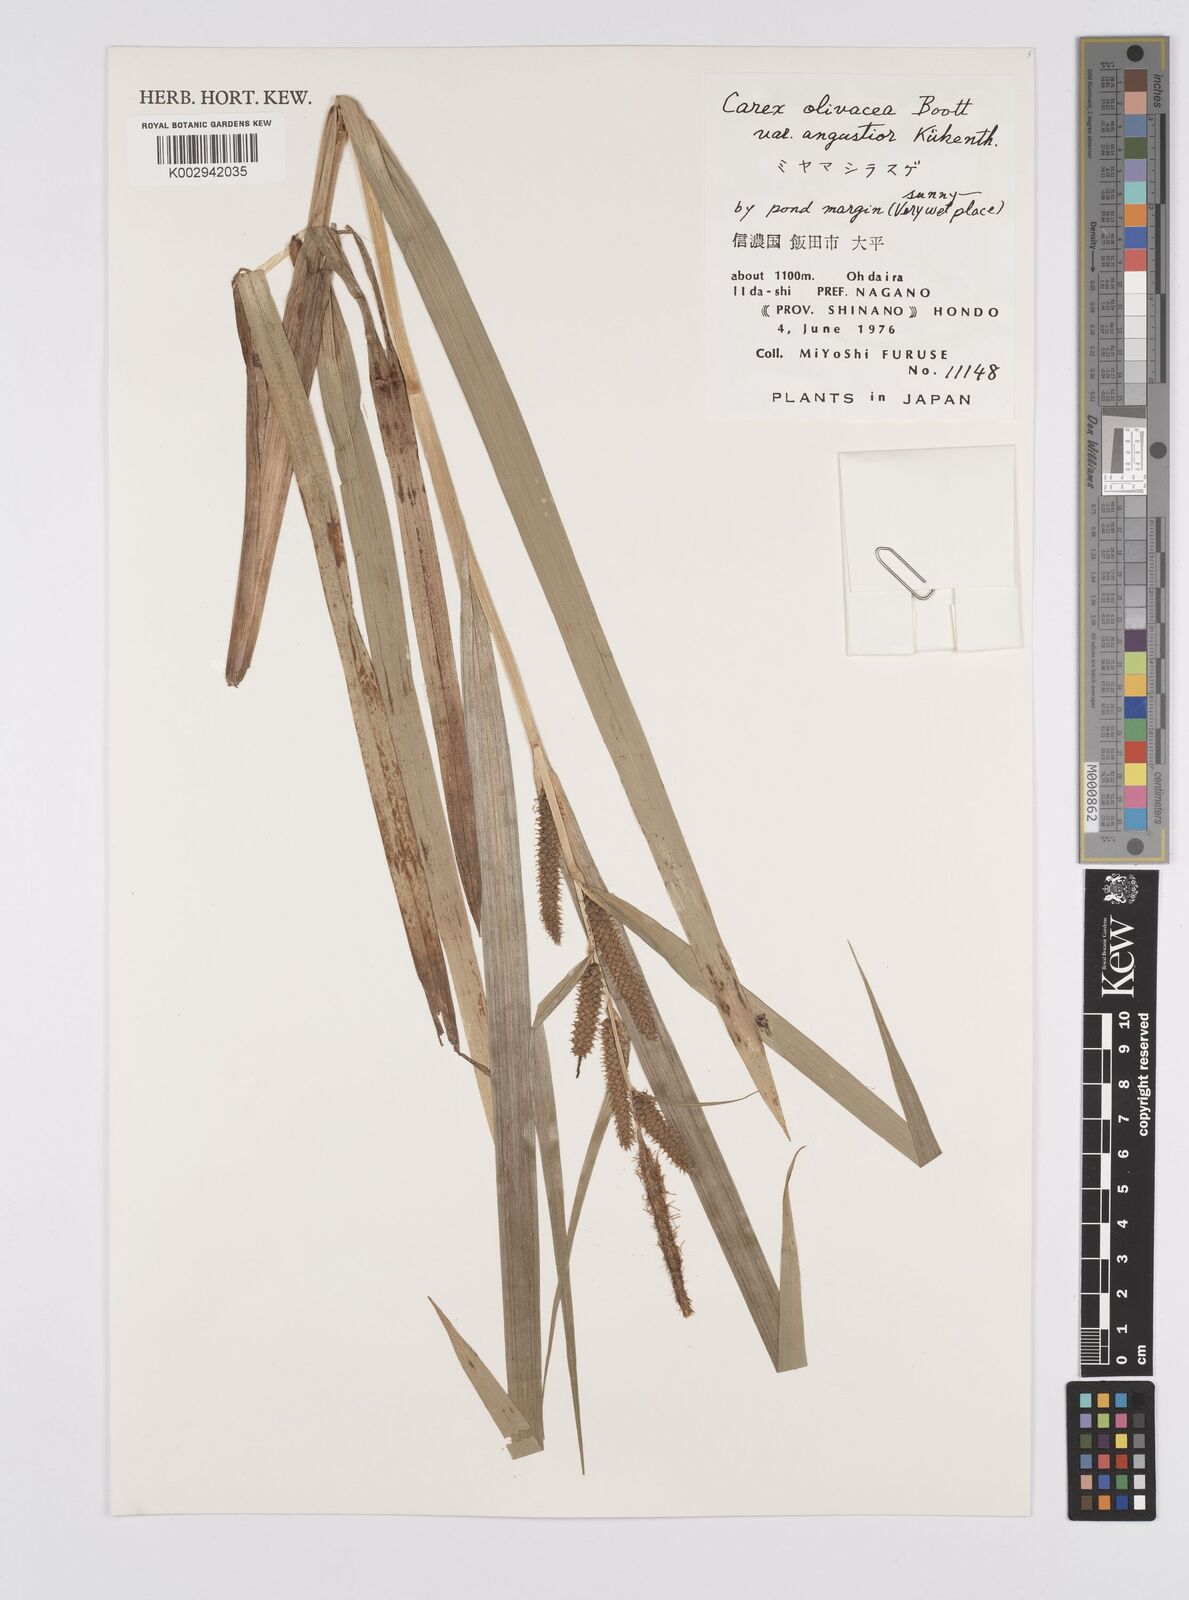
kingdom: Plantae
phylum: Tracheophyta
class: Liliopsida
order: Poales
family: Cyperaceae
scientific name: Cyperaceae
